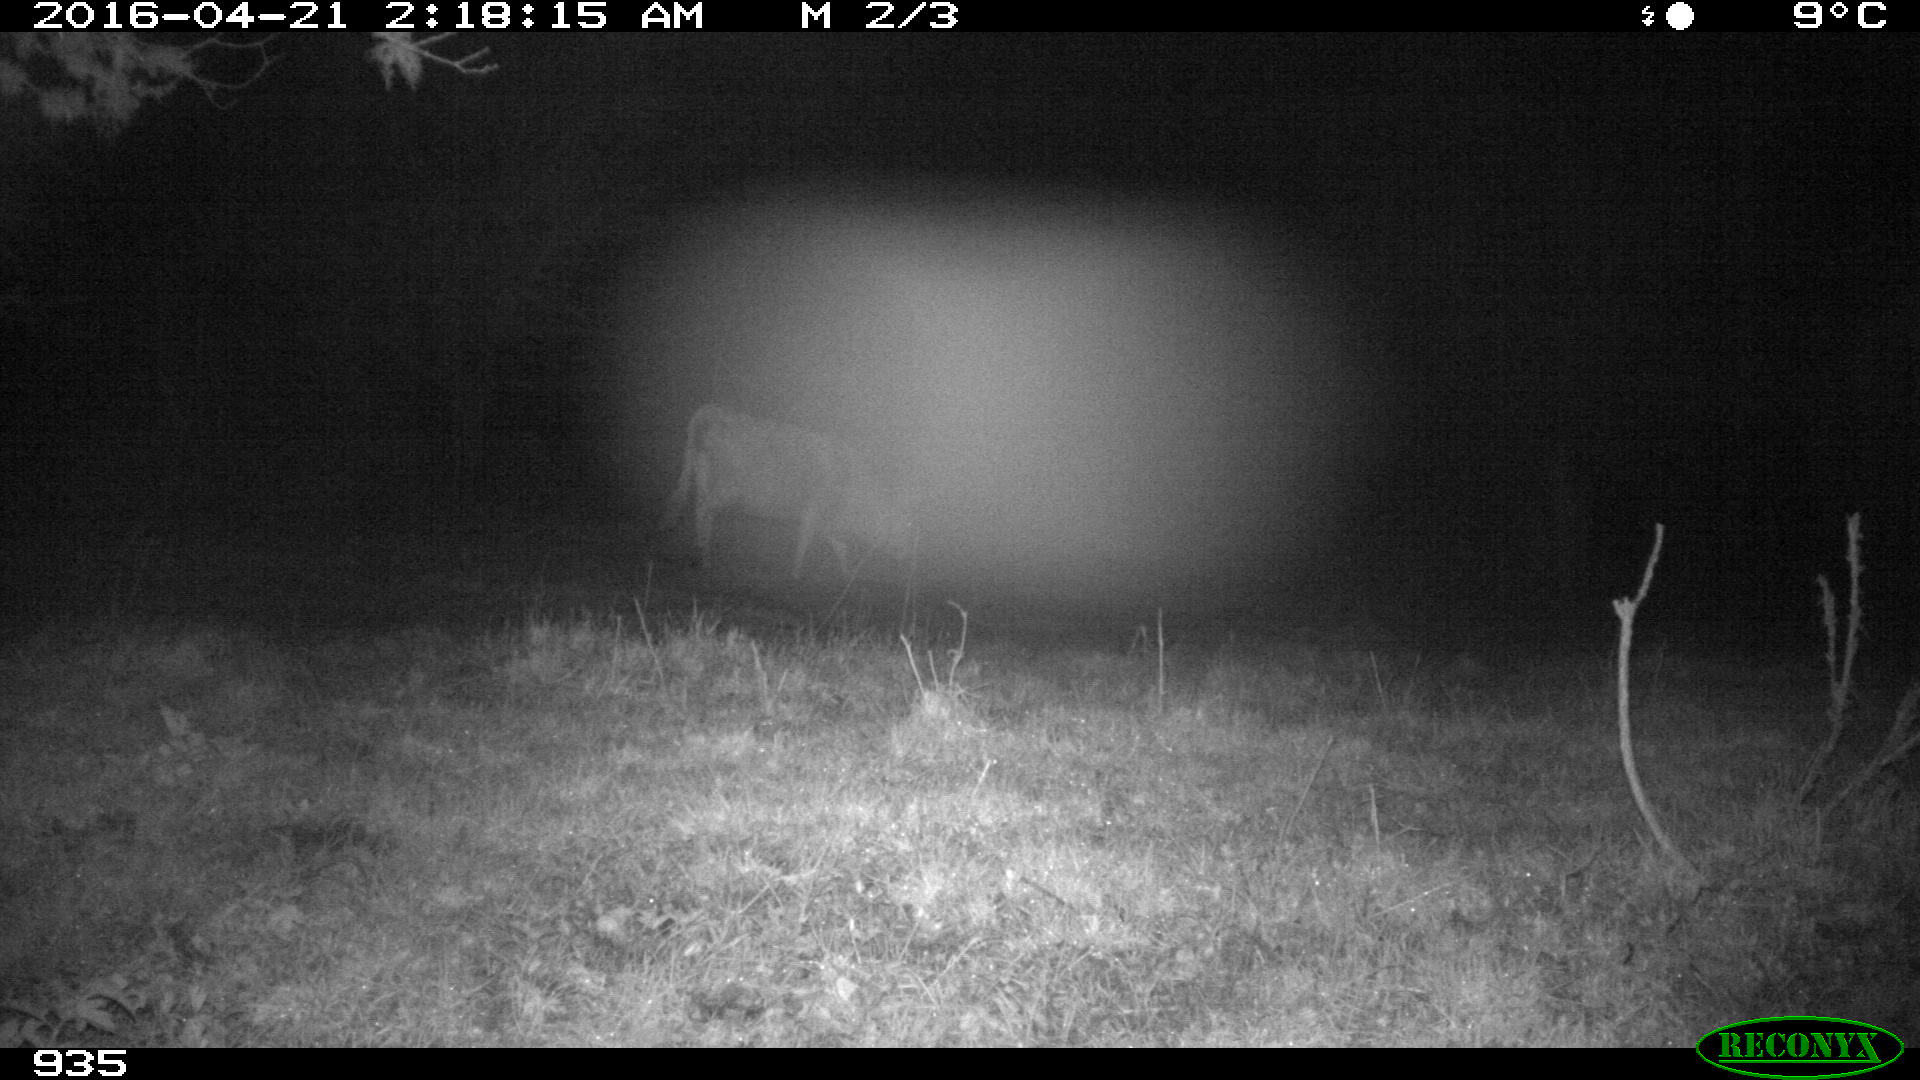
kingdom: Animalia
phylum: Chordata
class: Mammalia
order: Artiodactyla
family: Bovidae
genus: Bos
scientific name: Bos taurus
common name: Domesticated cattle
